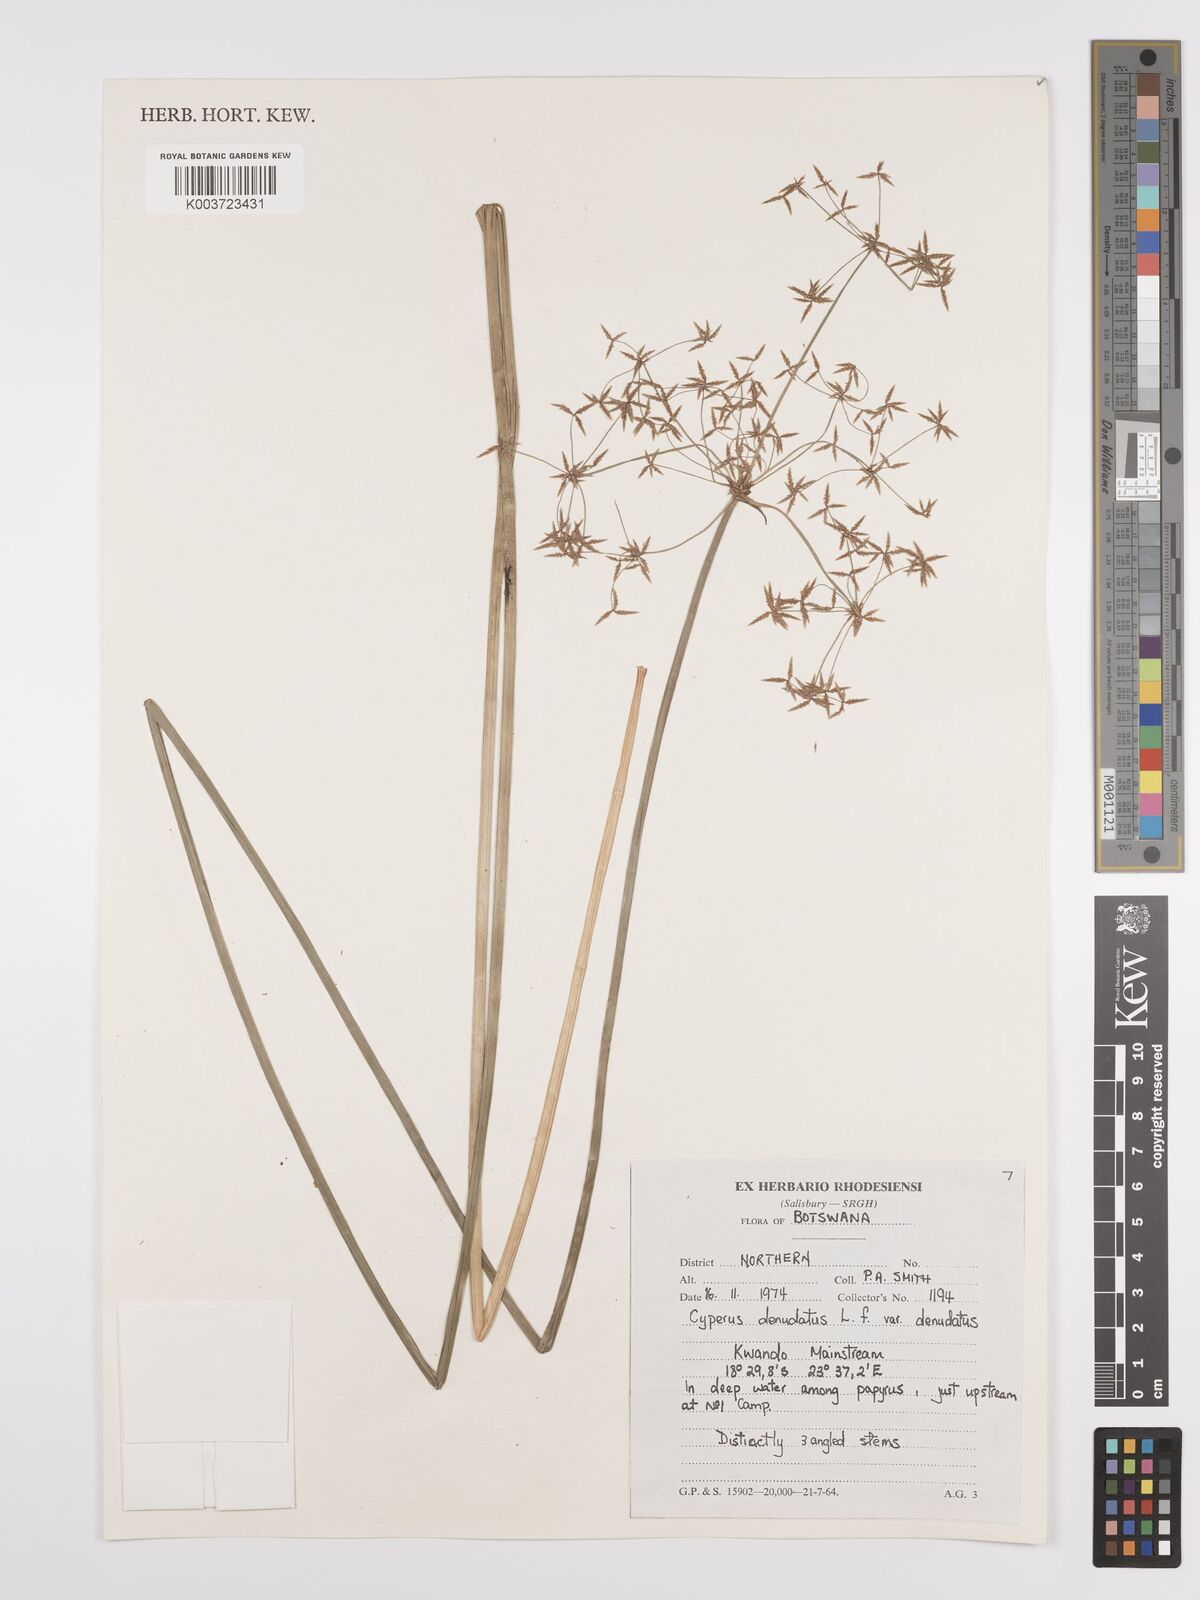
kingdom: Plantae
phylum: Tracheophyta
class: Liliopsida
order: Poales
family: Cyperaceae
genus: Cyperus
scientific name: Cyperus denudatus
